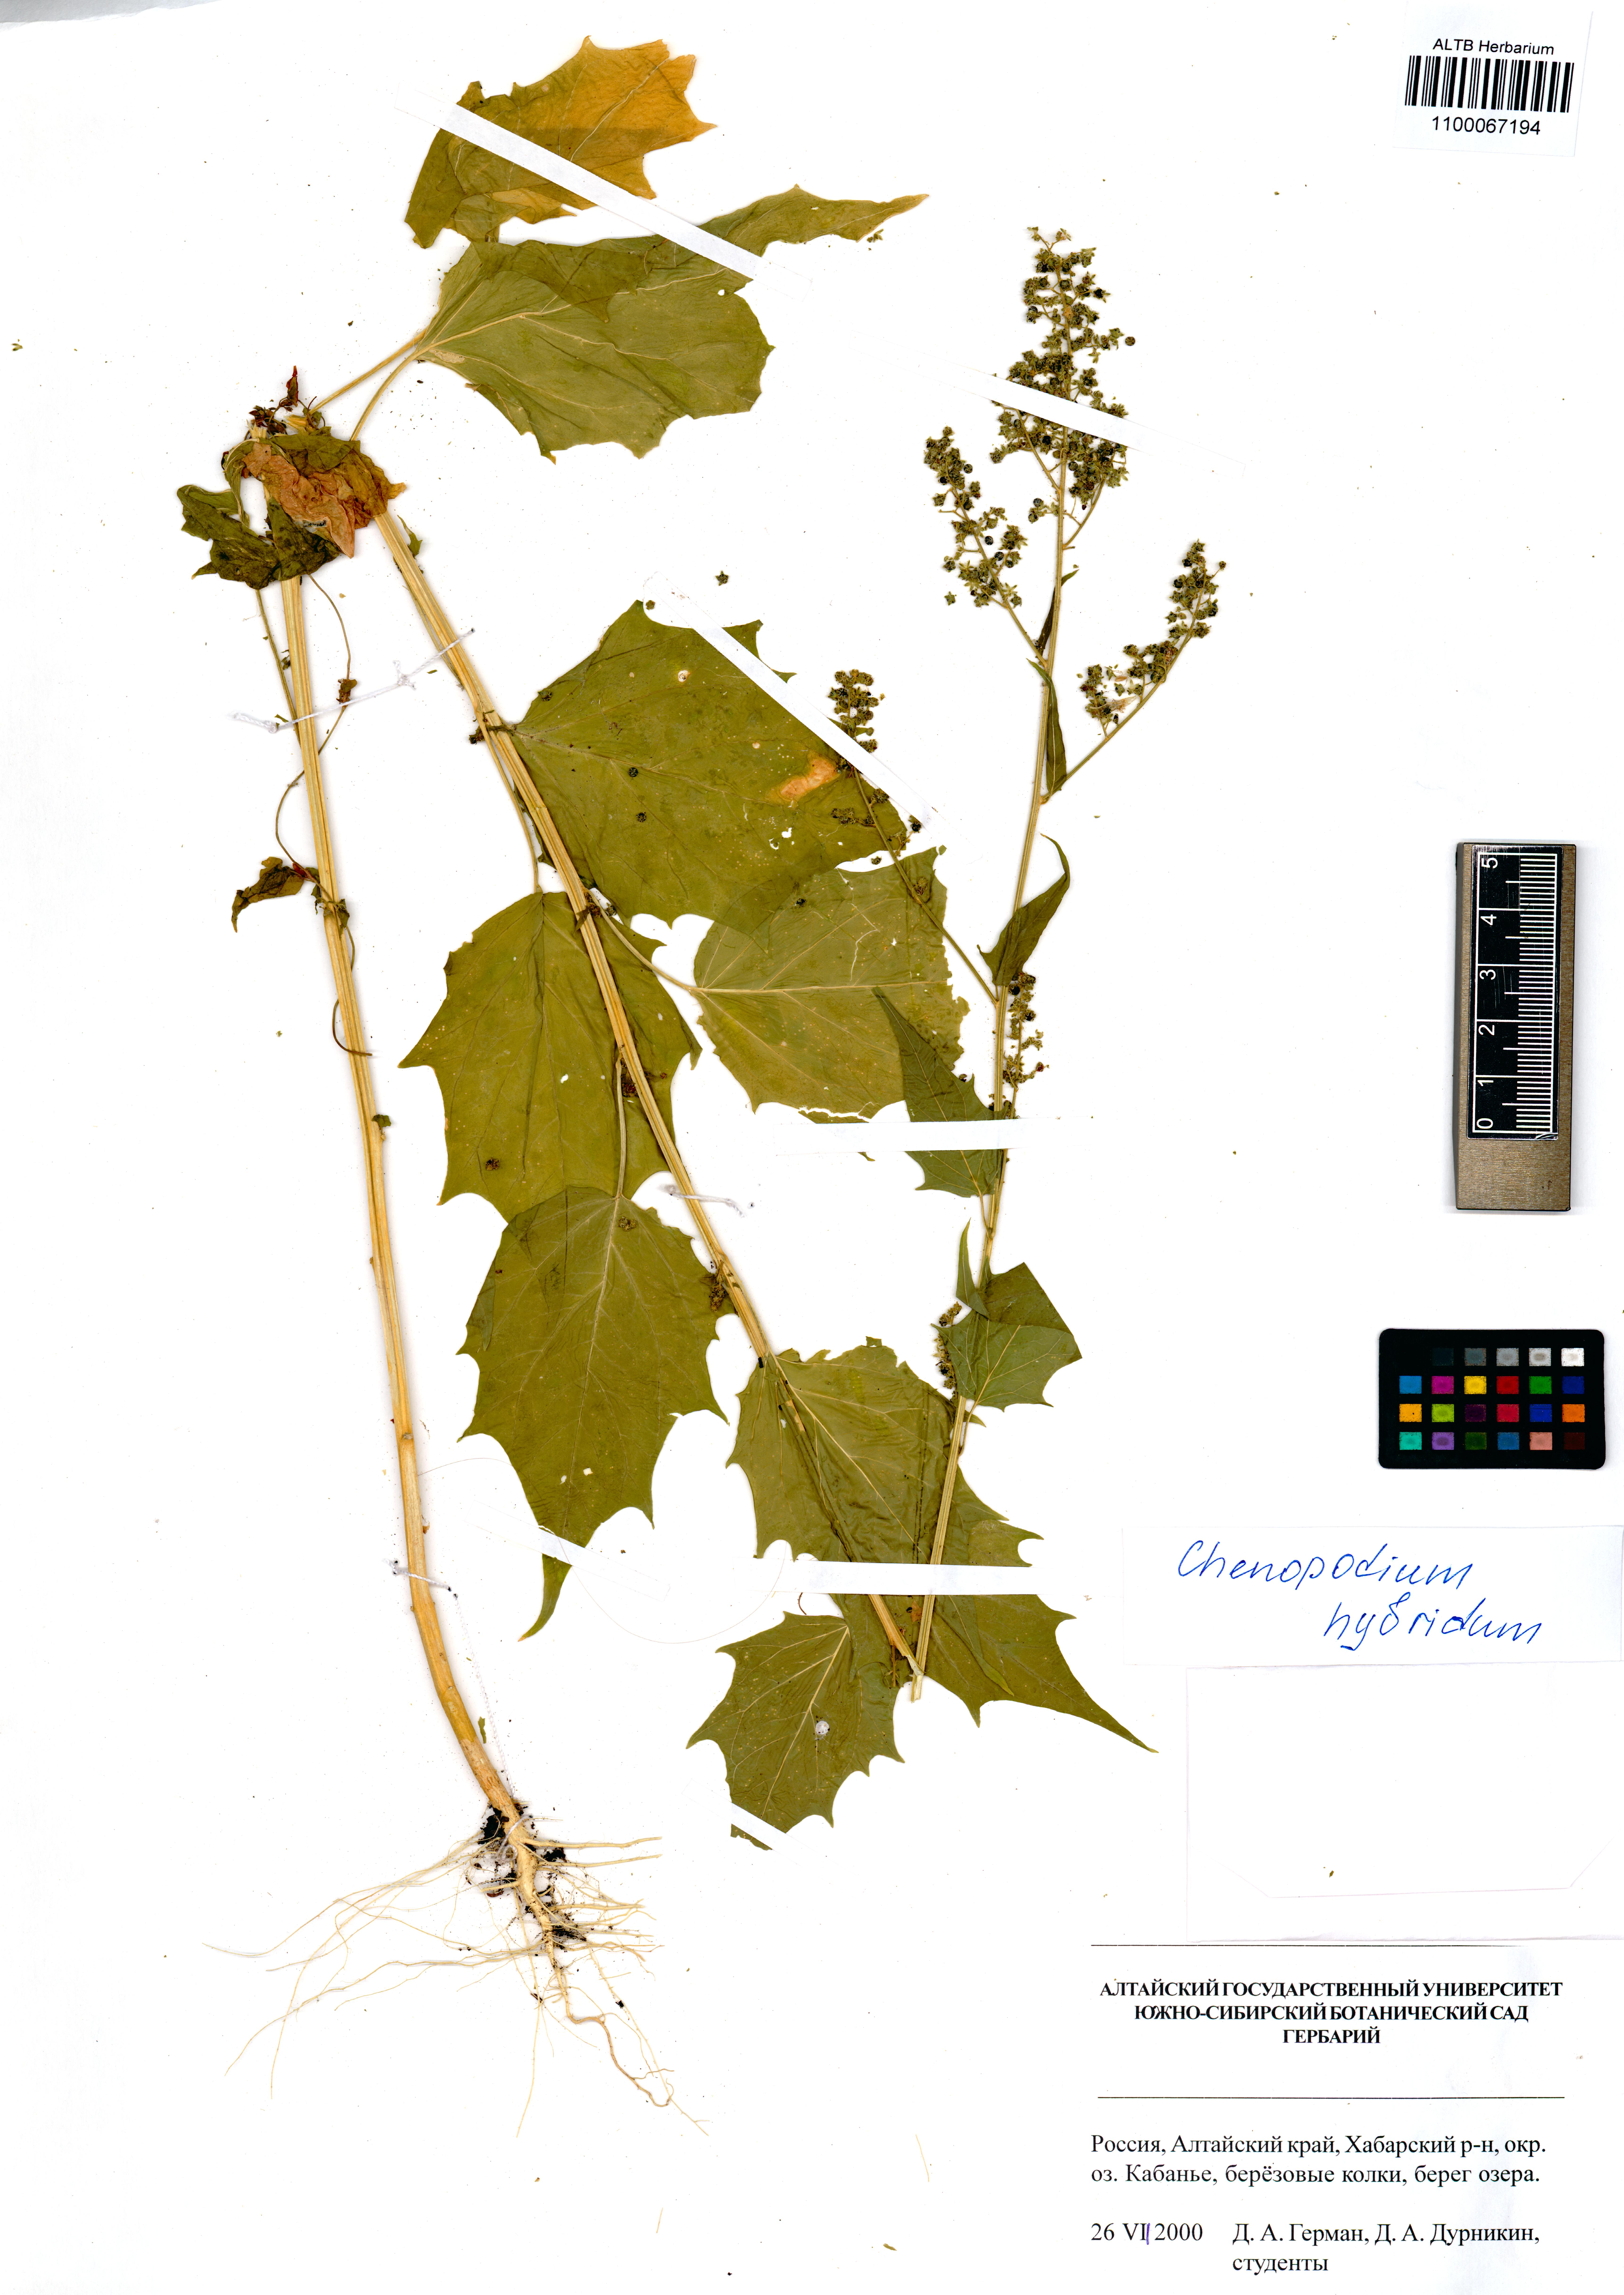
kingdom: Plantae
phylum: Tracheophyta
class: Magnoliopsida
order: Caryophyllales
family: Amaranthaceae
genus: Chenopodiastrum
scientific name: Chenopodiastrum hybridum
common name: Mapleleaf goosefoot
